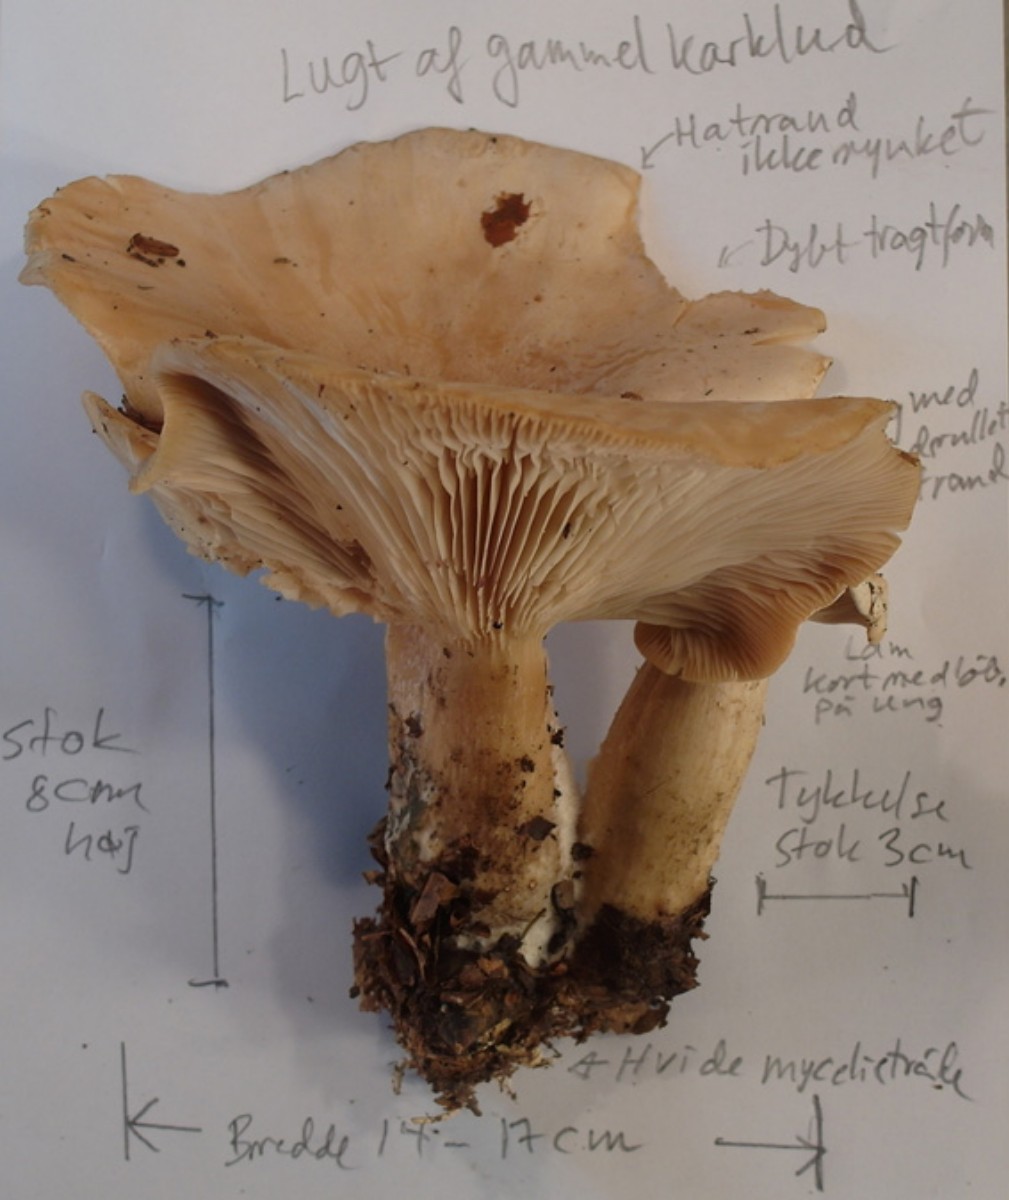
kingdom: Fungi
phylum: Basidiomycota
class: Agaricomycetes
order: Agaricales
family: Tricholomataceae
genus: Infundibulicybe
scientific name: Infundibulicybe geotropa
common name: stor tragthat
